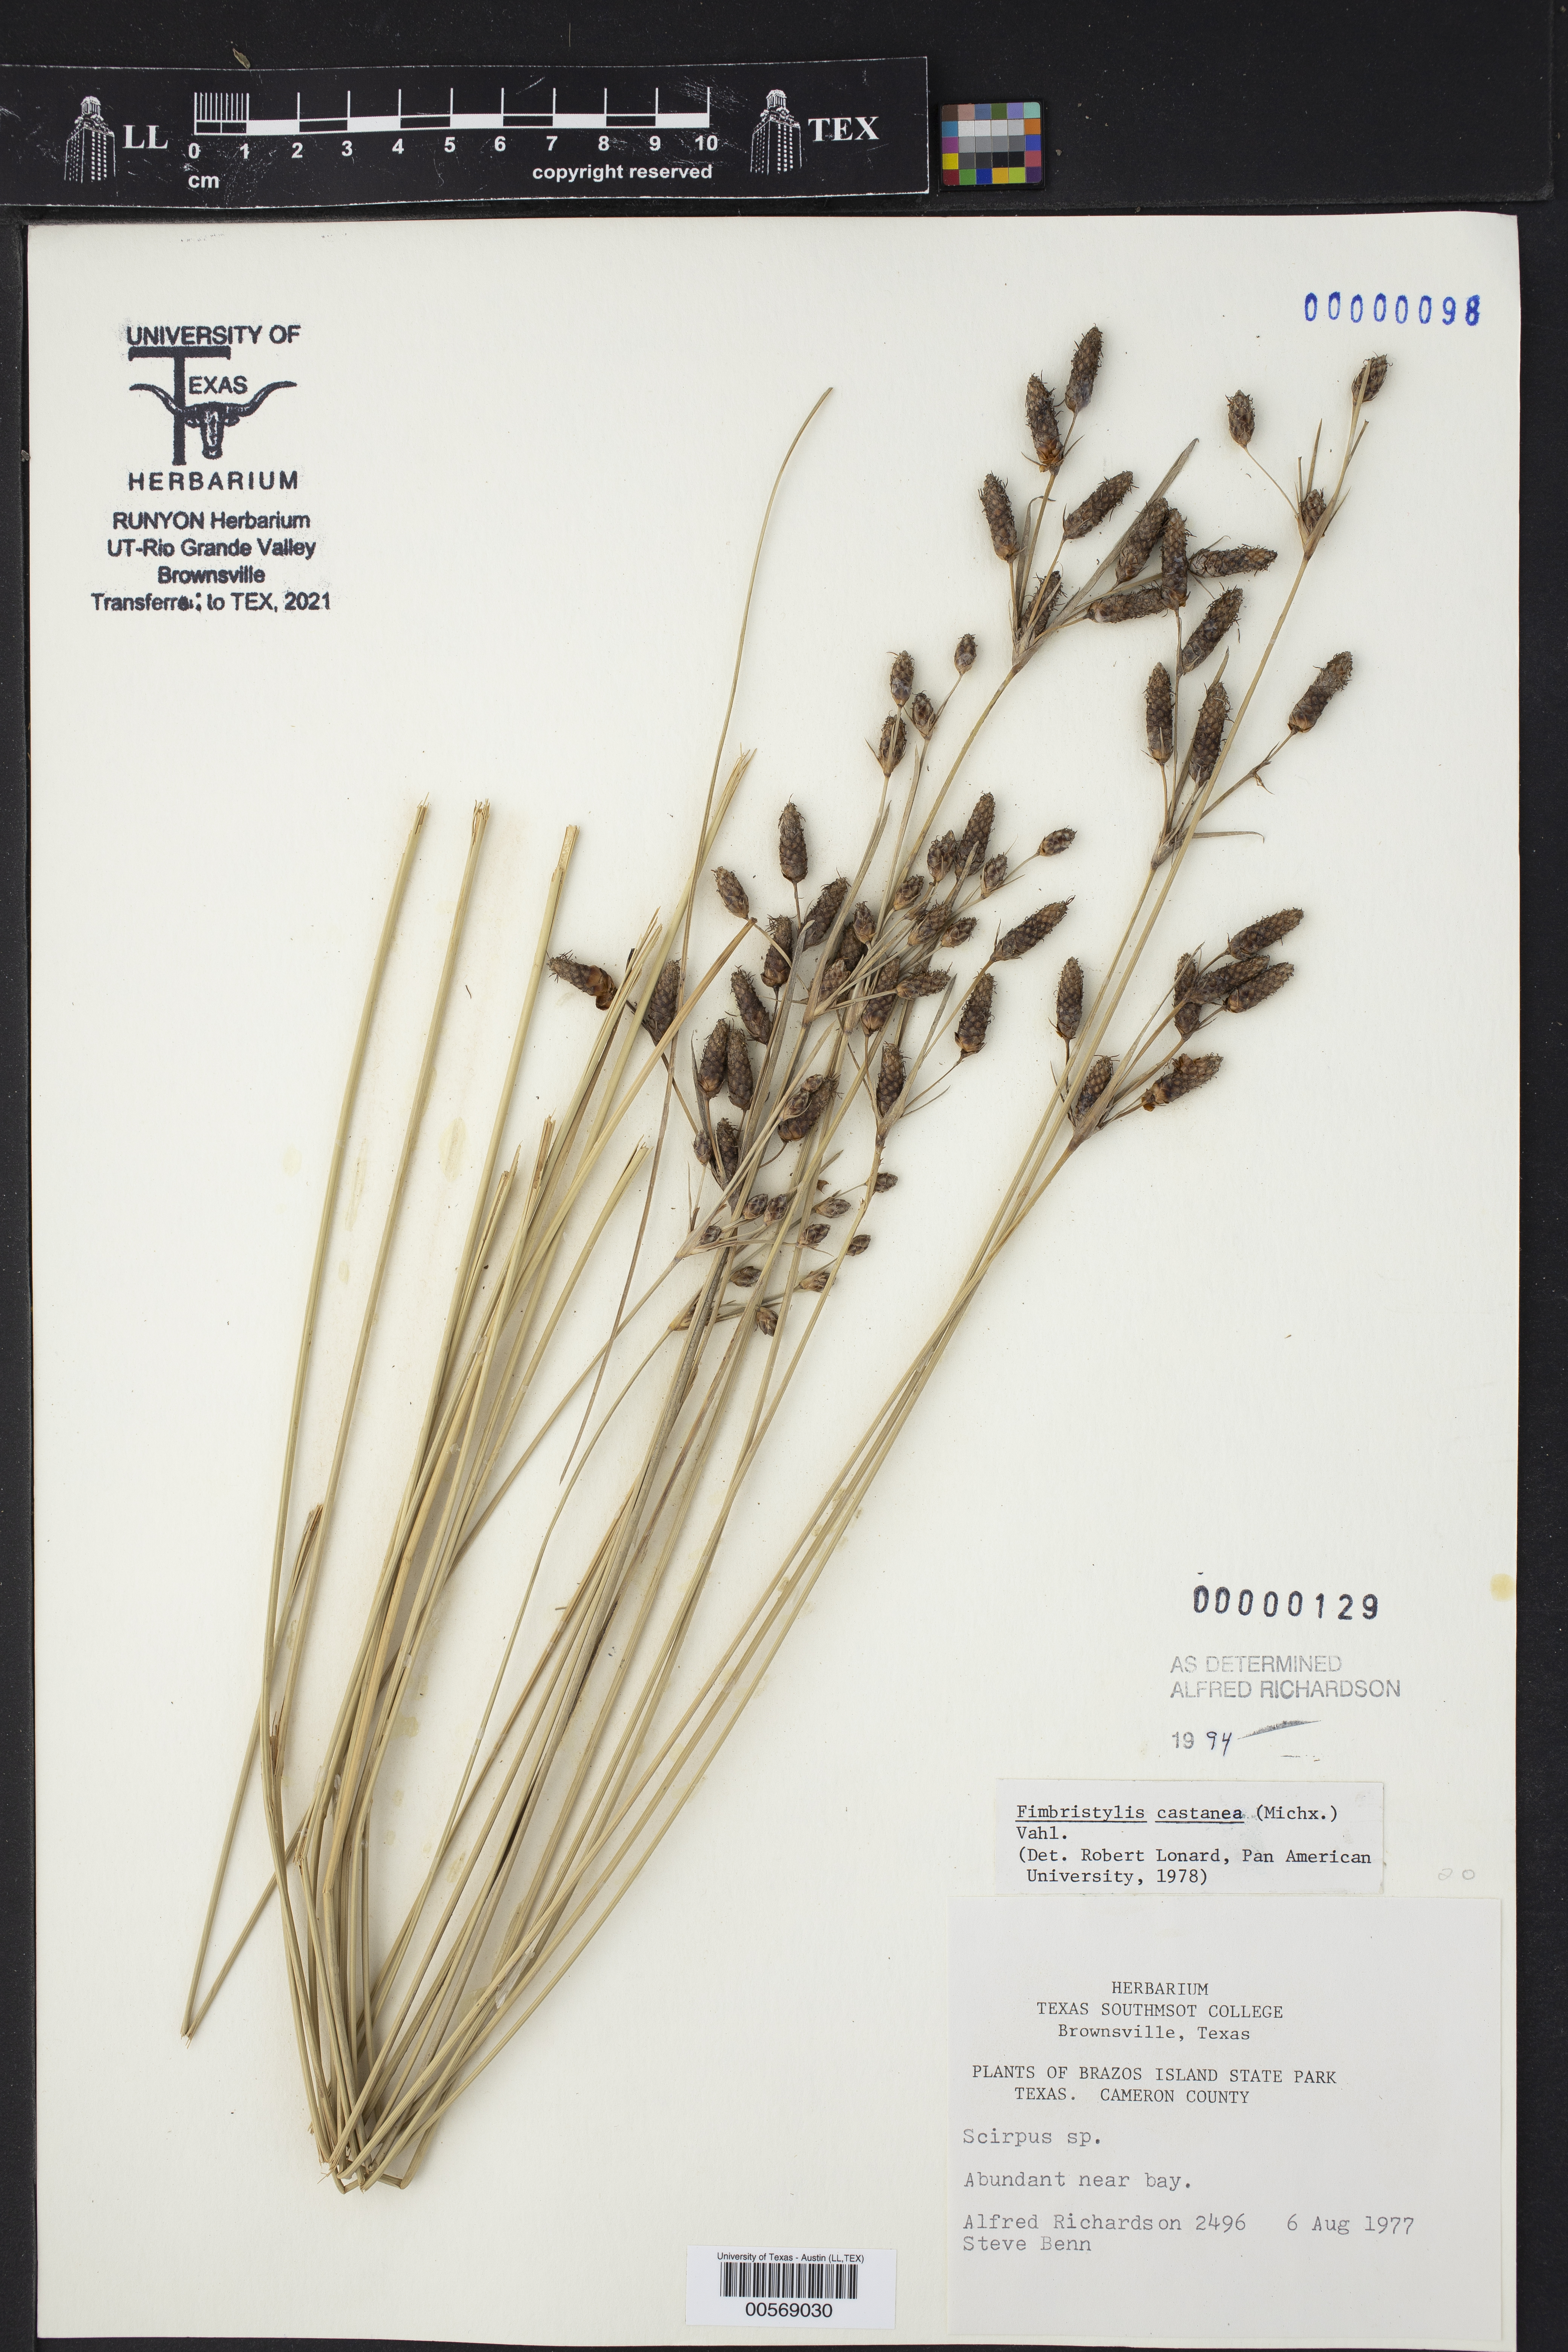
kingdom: Plantae
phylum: Tracheophyta
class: Liliopsida
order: Poales
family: Cyperaceae
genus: Fimbristylis
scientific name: Fimbristylis spadicea
